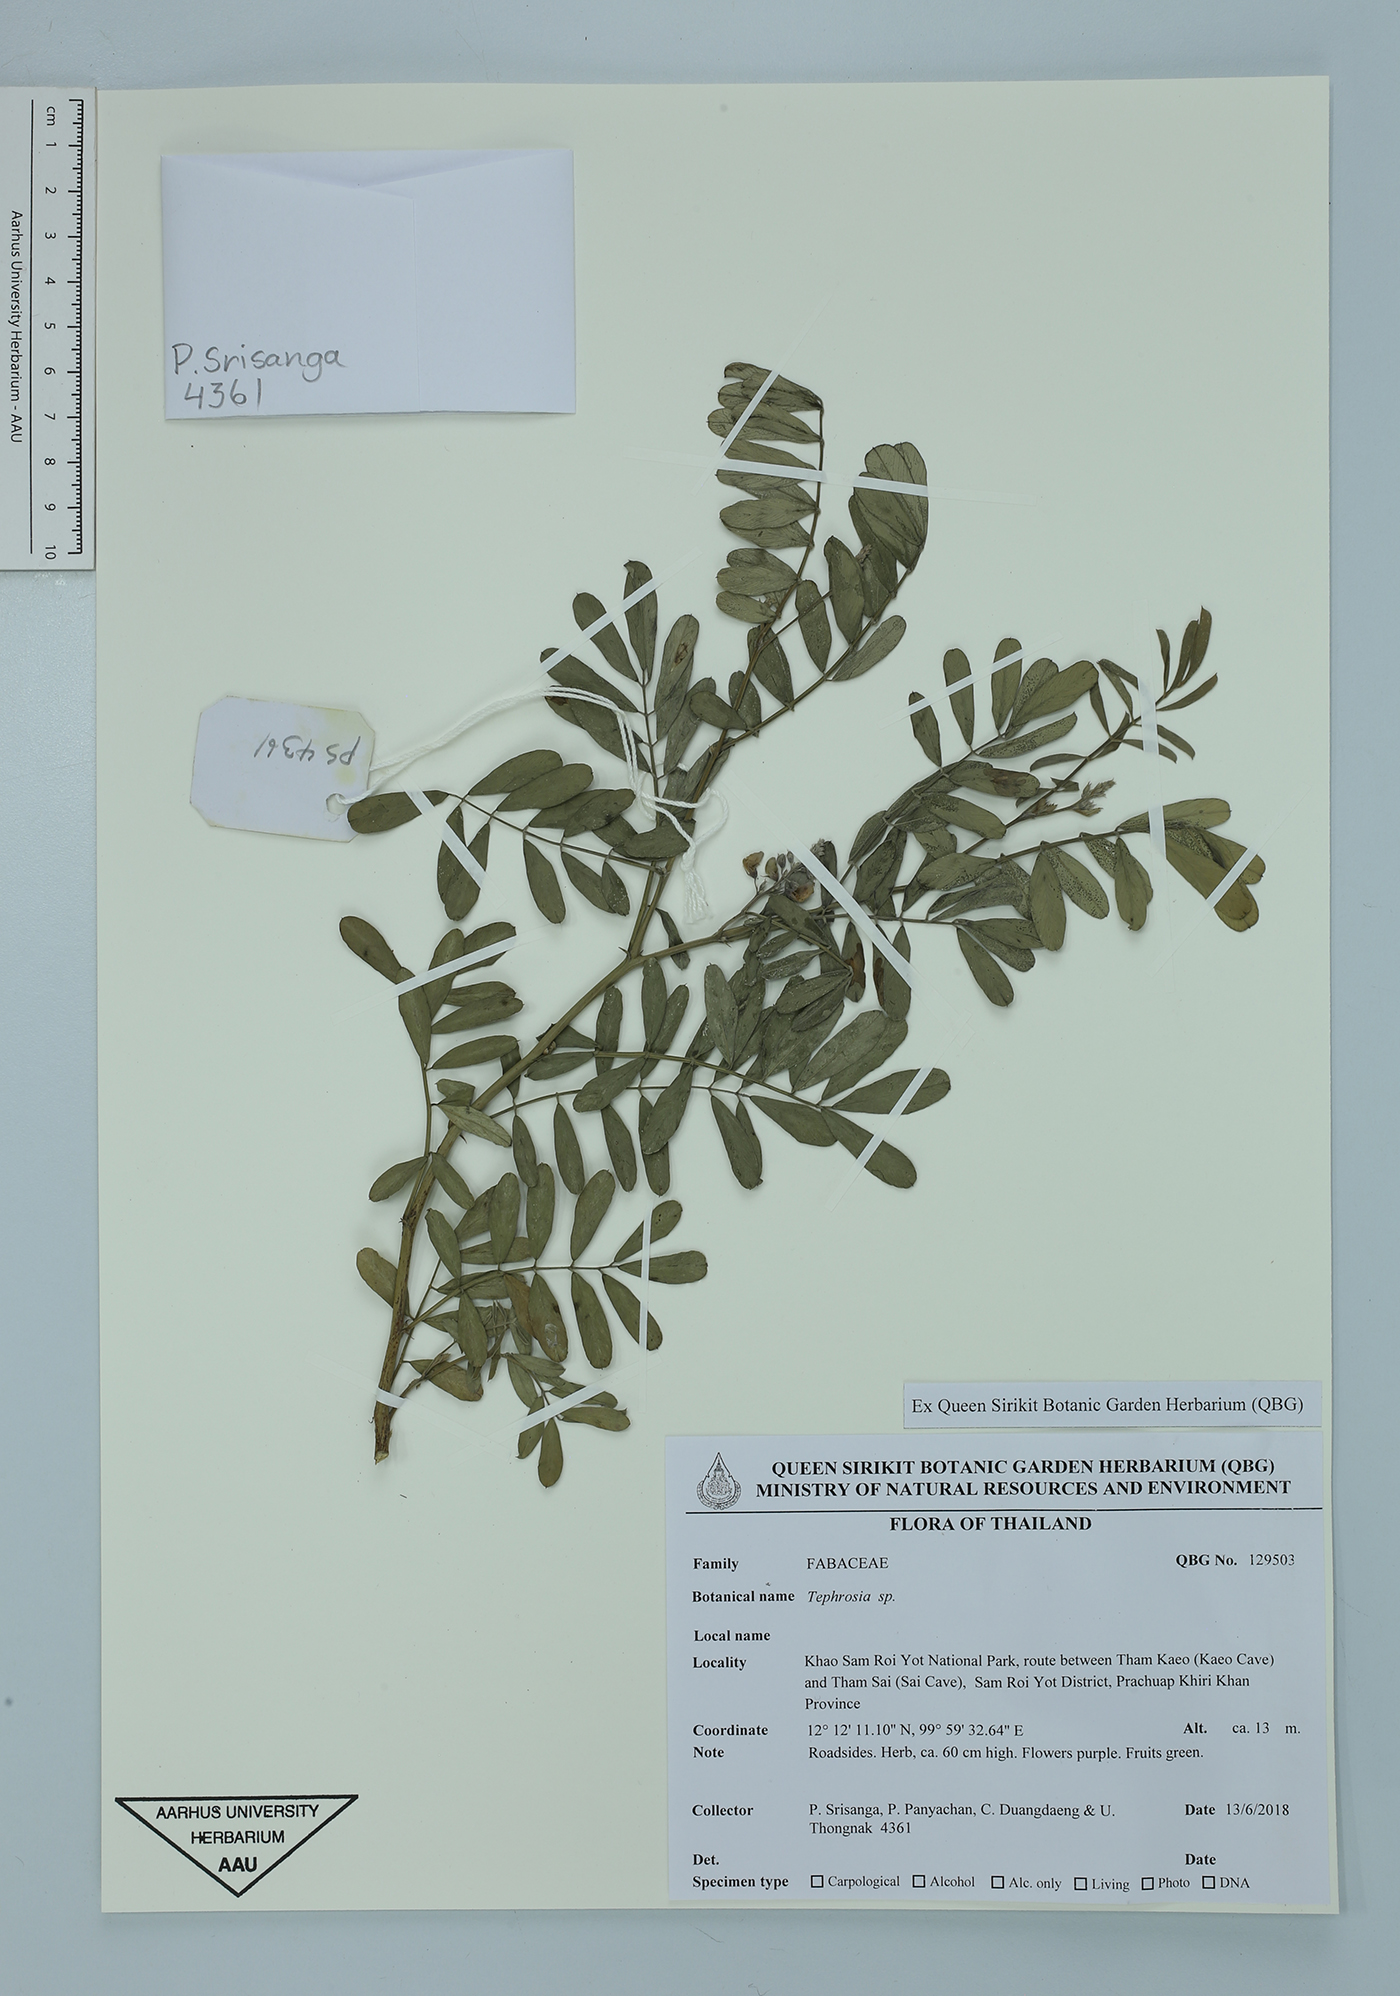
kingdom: Plantae
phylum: Tracheophyta
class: Magnoliopsida
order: Fabales
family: Fabaceae
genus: Tephrosia
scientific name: Tephrosia
